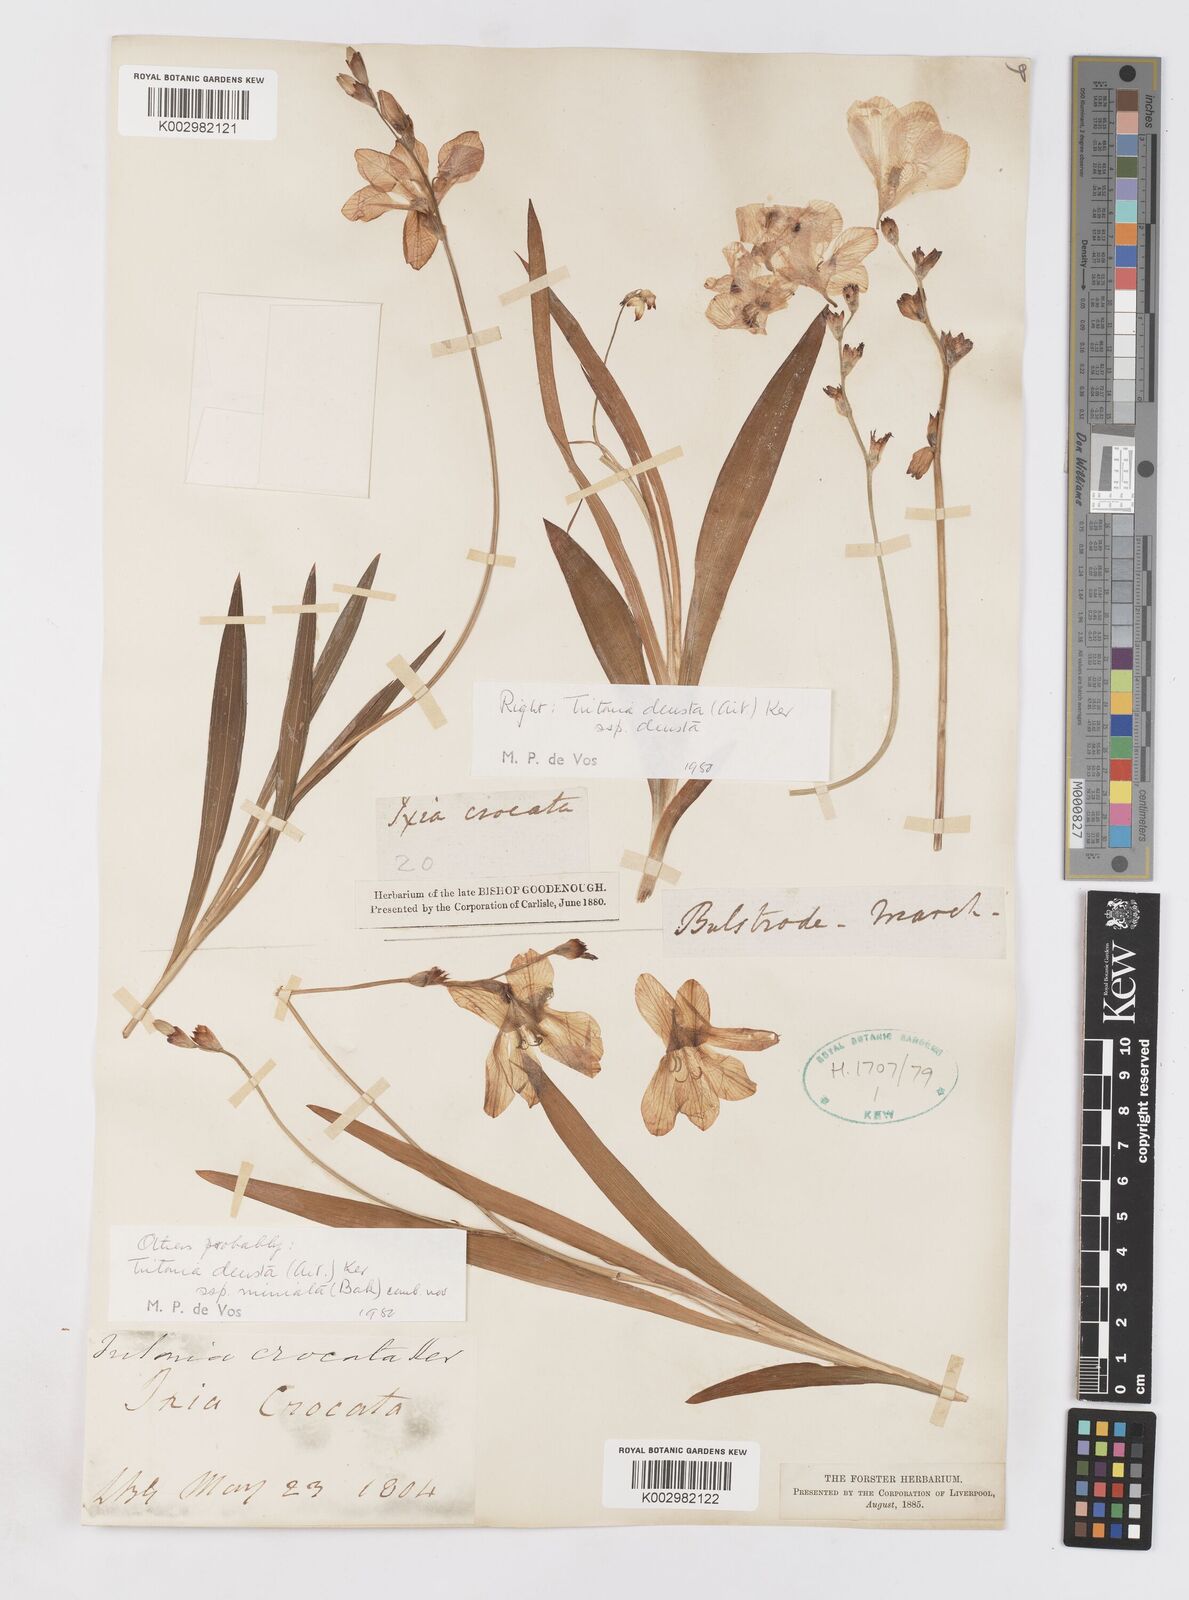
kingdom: Plantae
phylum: Tracheophyta
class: Liliopsida
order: Asparagales
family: Iridaceae
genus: Tritonia
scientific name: Tritonia deusta
